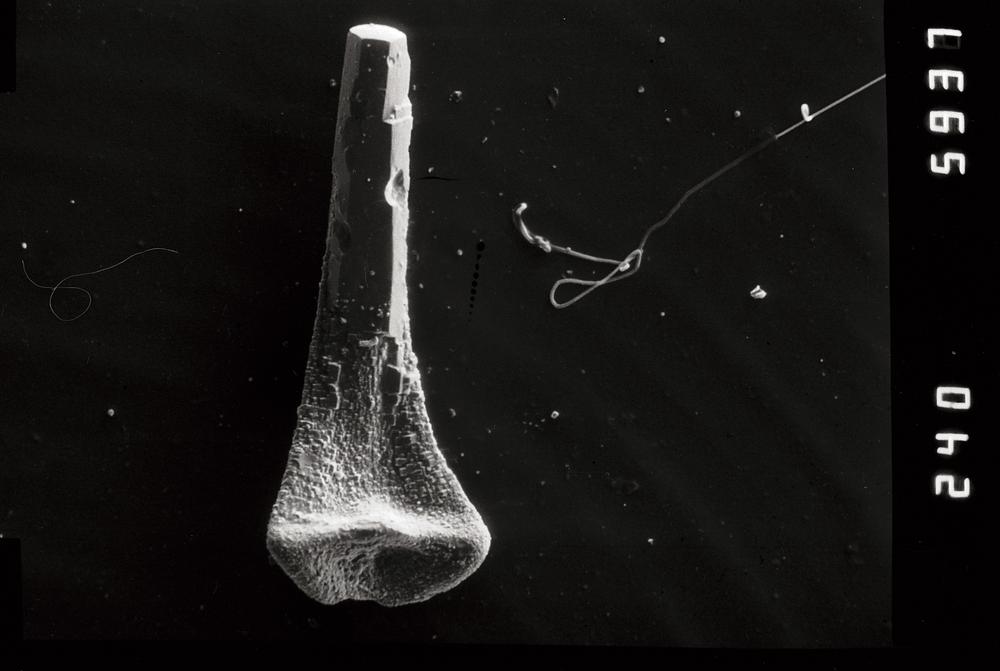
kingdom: Animalia
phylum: Chordata
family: Protopanderodontidae
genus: Juanognathus
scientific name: Juanognathus
